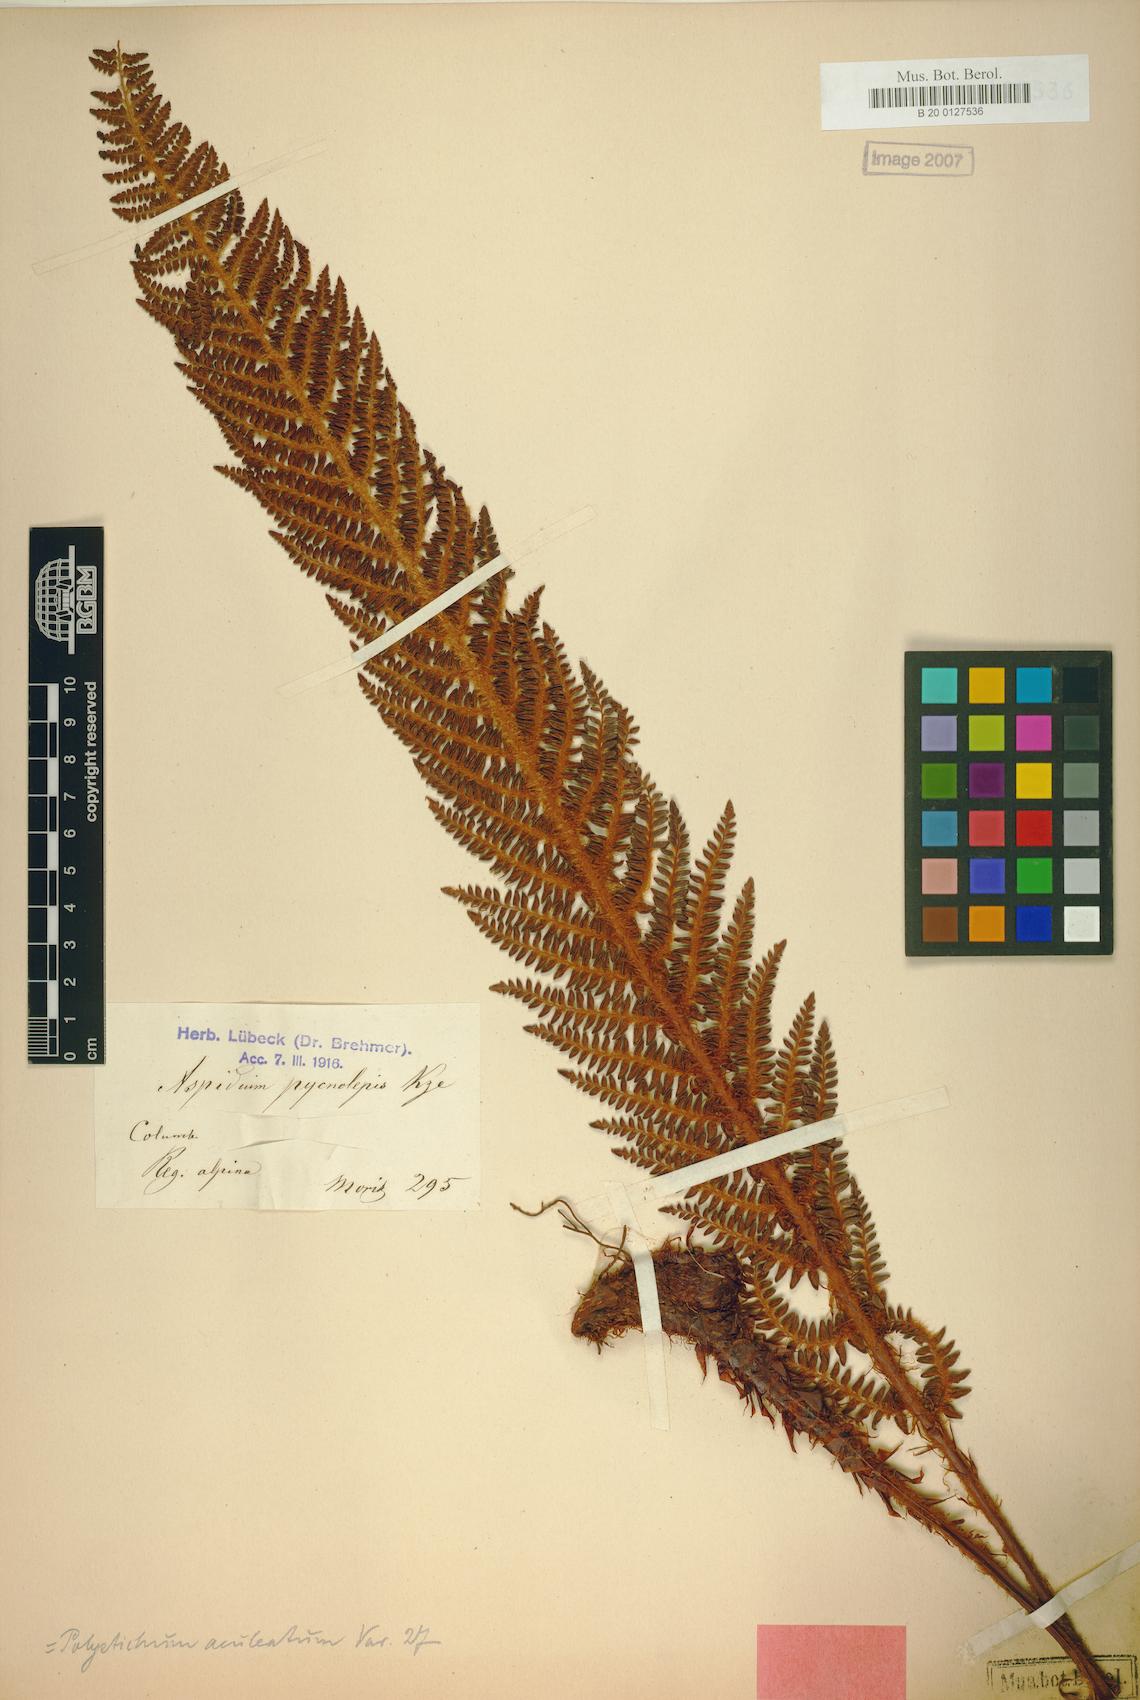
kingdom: Plantae
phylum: Tracheophyta
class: Polypodiopsida
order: Polypodiales
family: Dryopteridaceae
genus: Polystichum
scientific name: Polystichum pycnolepis
